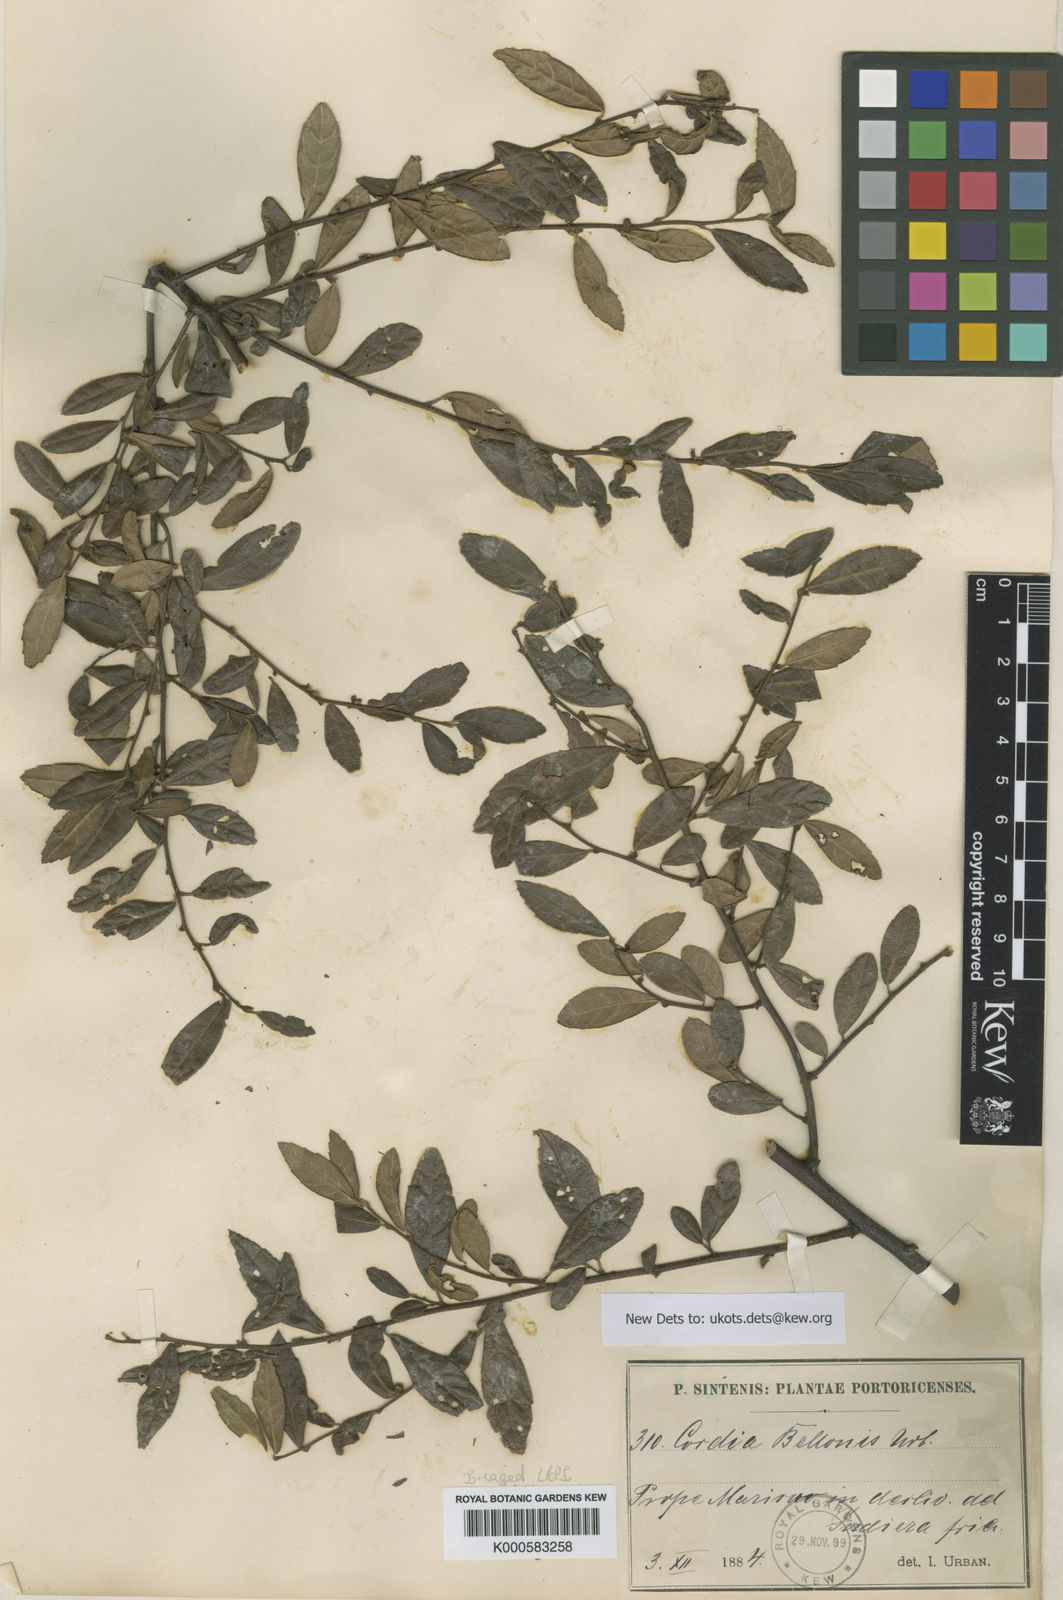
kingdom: Plantae
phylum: Tracheophyta
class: Magnoliopsida
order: Boraginales
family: Cordiaceae
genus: Varronia
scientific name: Varronia bellonis
